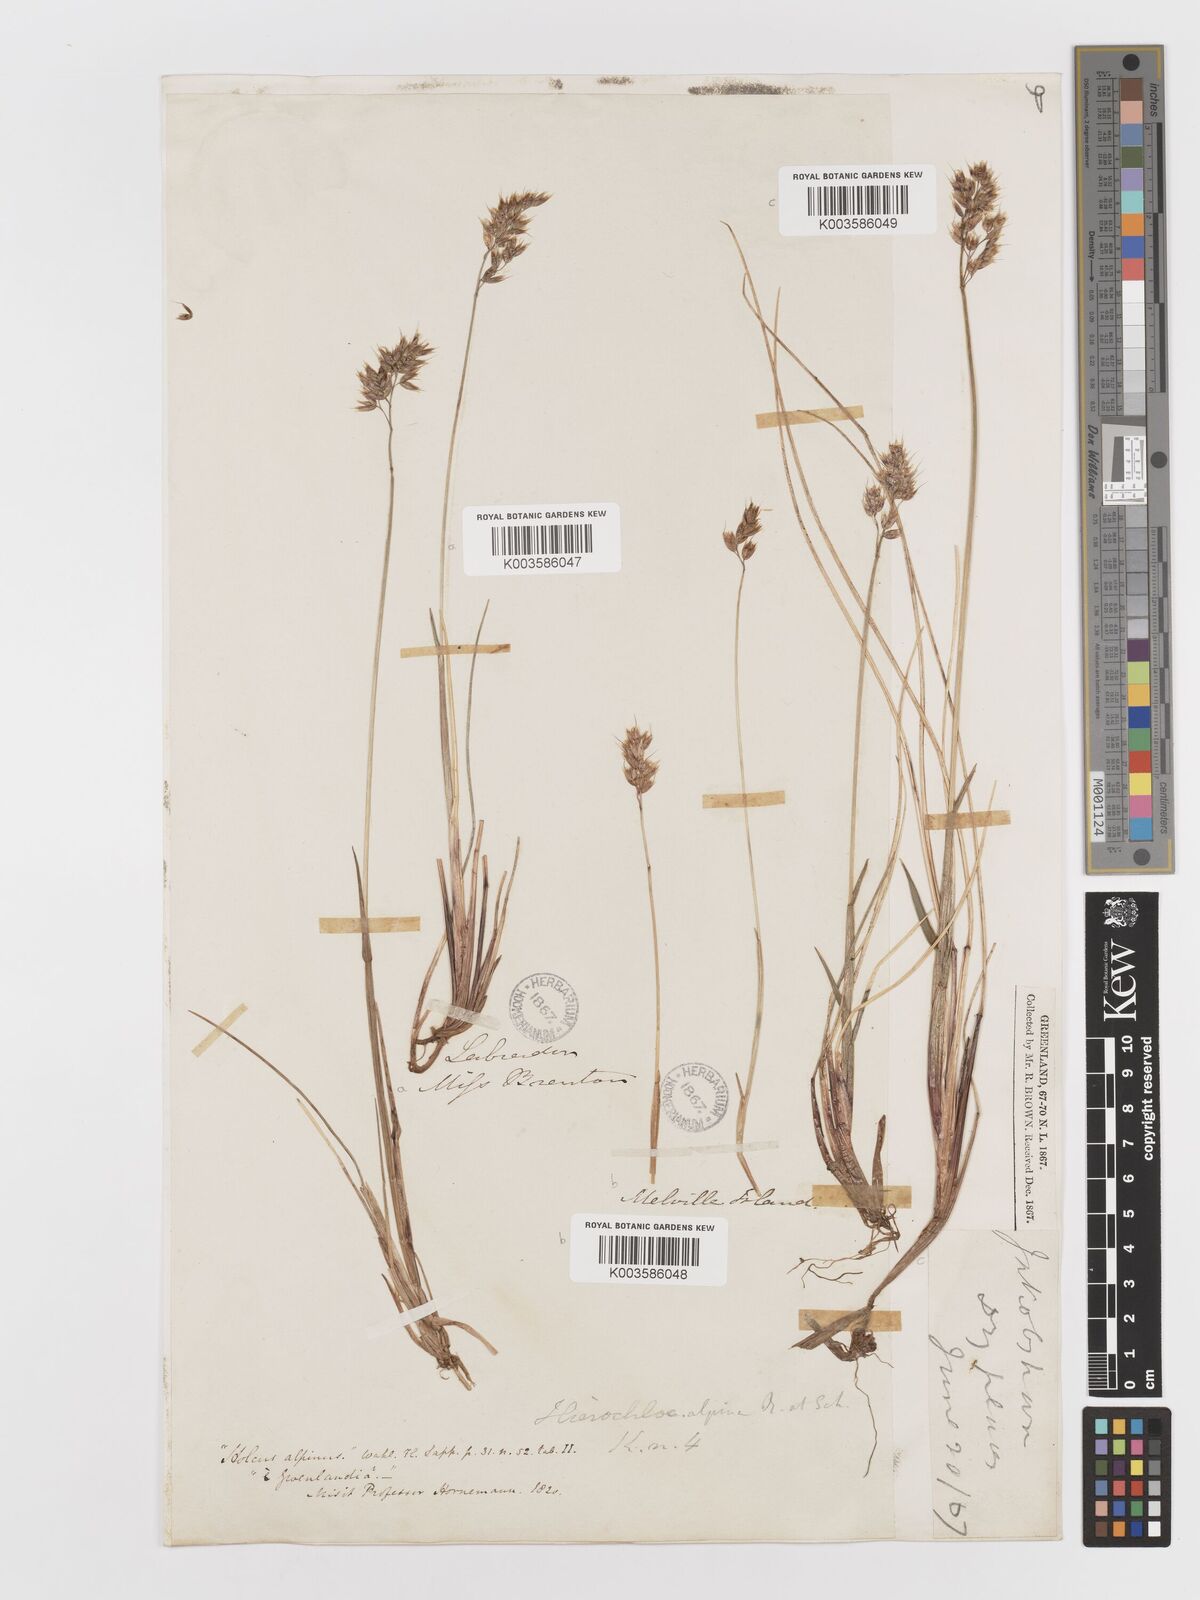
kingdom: Plantae
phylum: Tracheophyta
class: Liliopsida
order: Poales
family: Poaceae
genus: Anthoxanthum
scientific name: Anthoxanthum monticola
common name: Alpine sweetgrass
